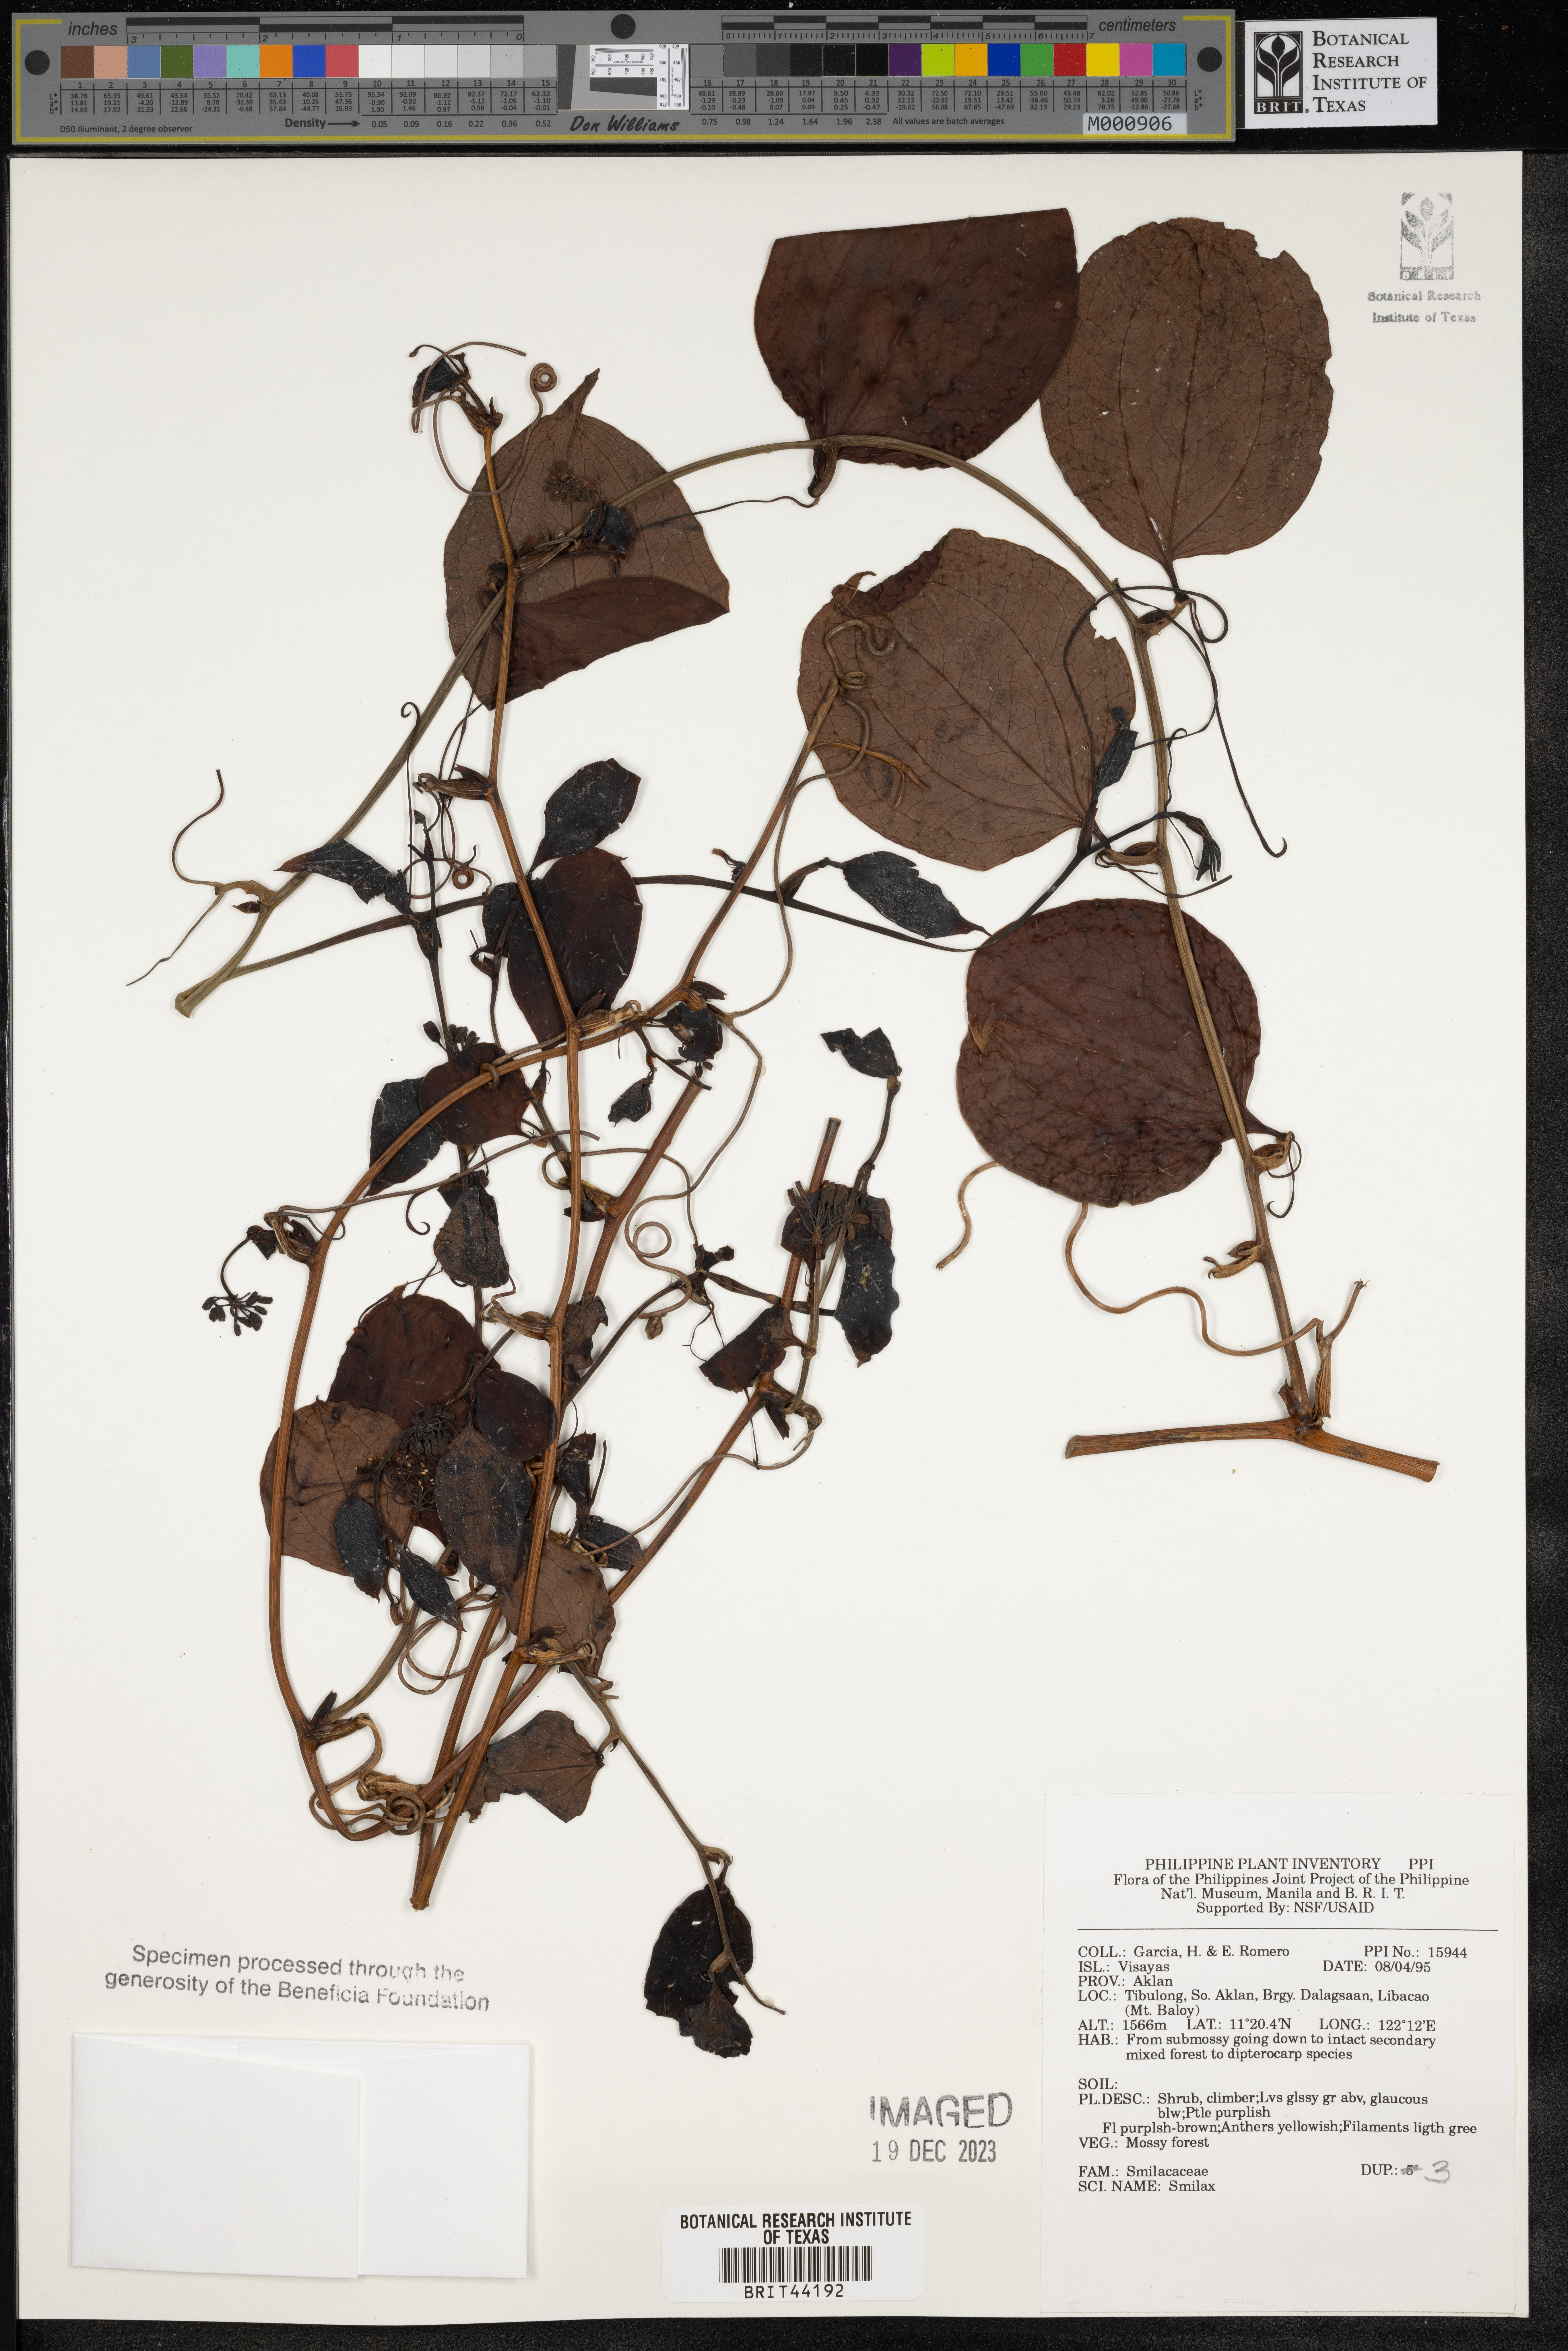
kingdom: Plantae
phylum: Tracheophyta
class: Liliopsida
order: Liliales
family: Smilacaceae
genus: Smilax
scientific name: Smilax
